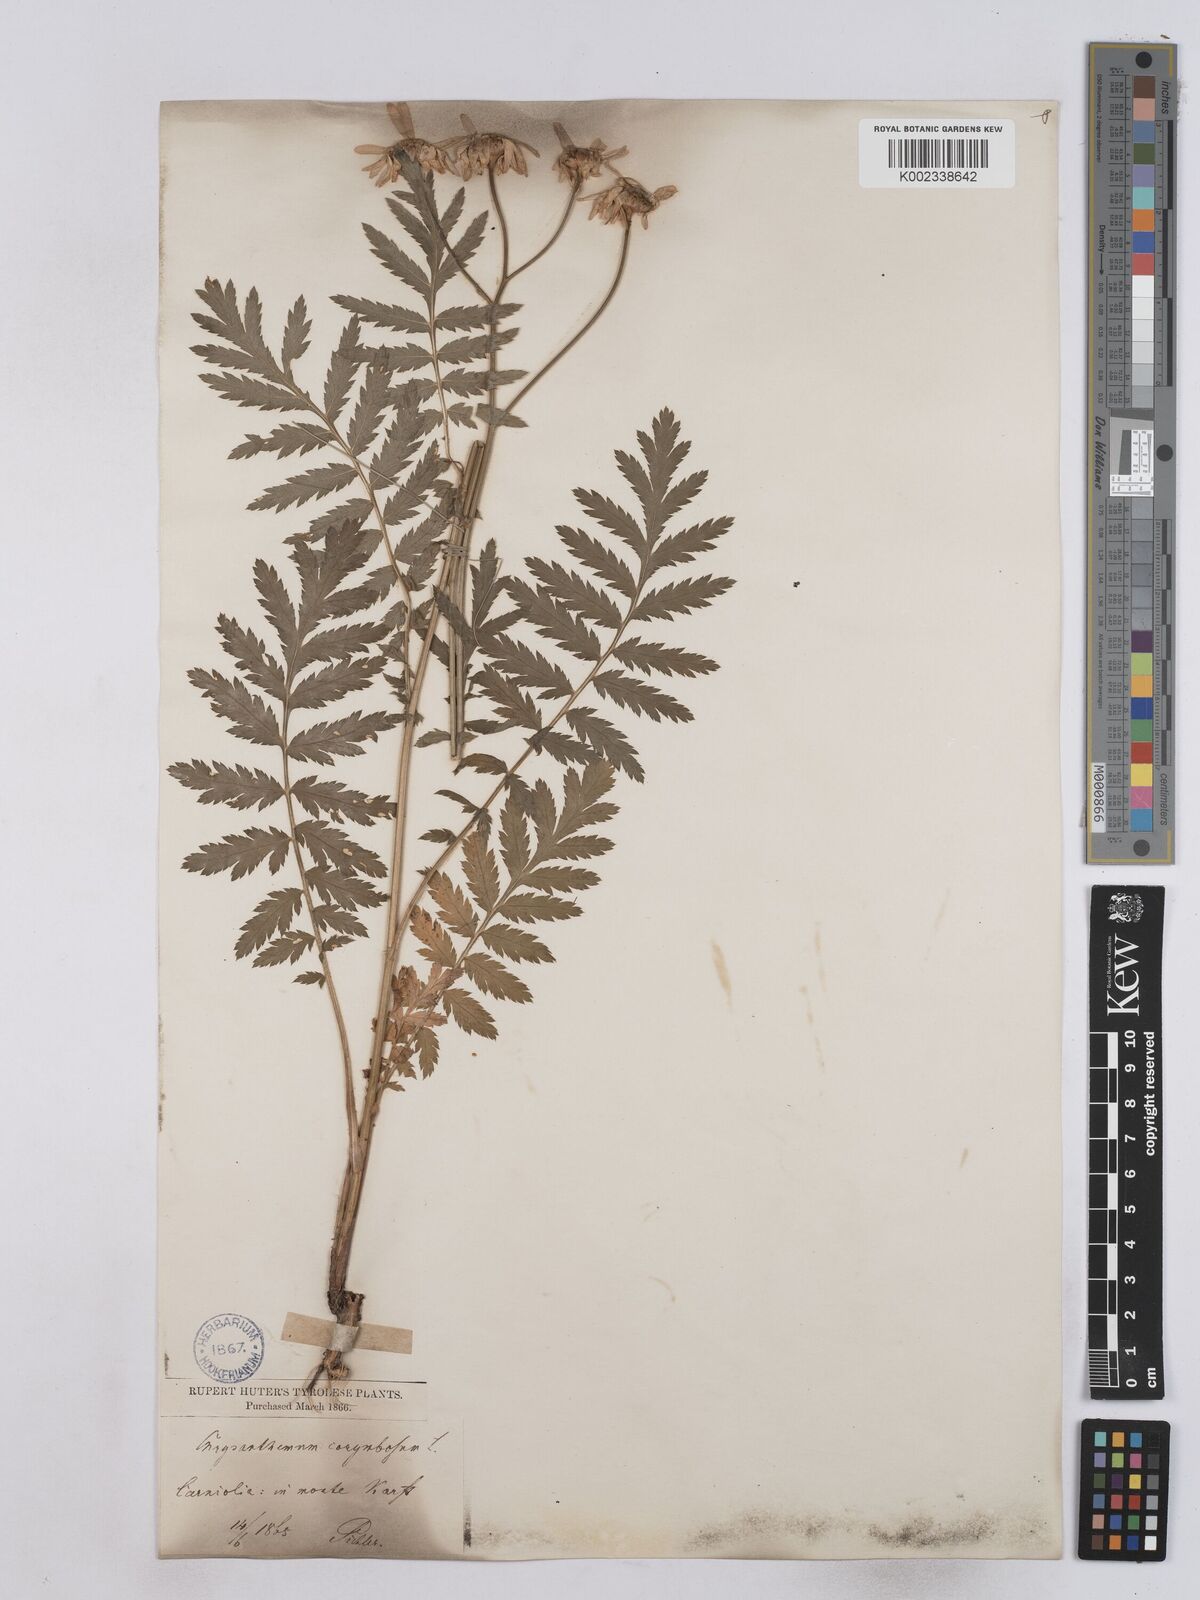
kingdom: Plantae
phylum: Tracheophyta
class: Magnoliopsida
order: Asterales
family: Asteraceae
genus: Tanacetum
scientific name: Tanacetum corymbosum
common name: Scentless feverfew
